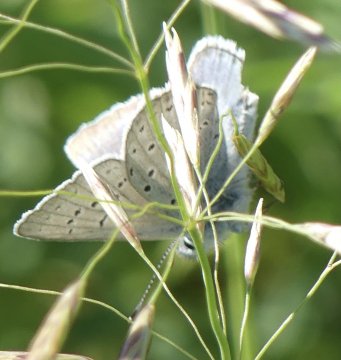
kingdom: Animalia
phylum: Arthropoda
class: Insecta
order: Lepidoptera
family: Lycaenidae
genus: Plebejus
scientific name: Plebejus saepiolus
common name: Greenish Blue
